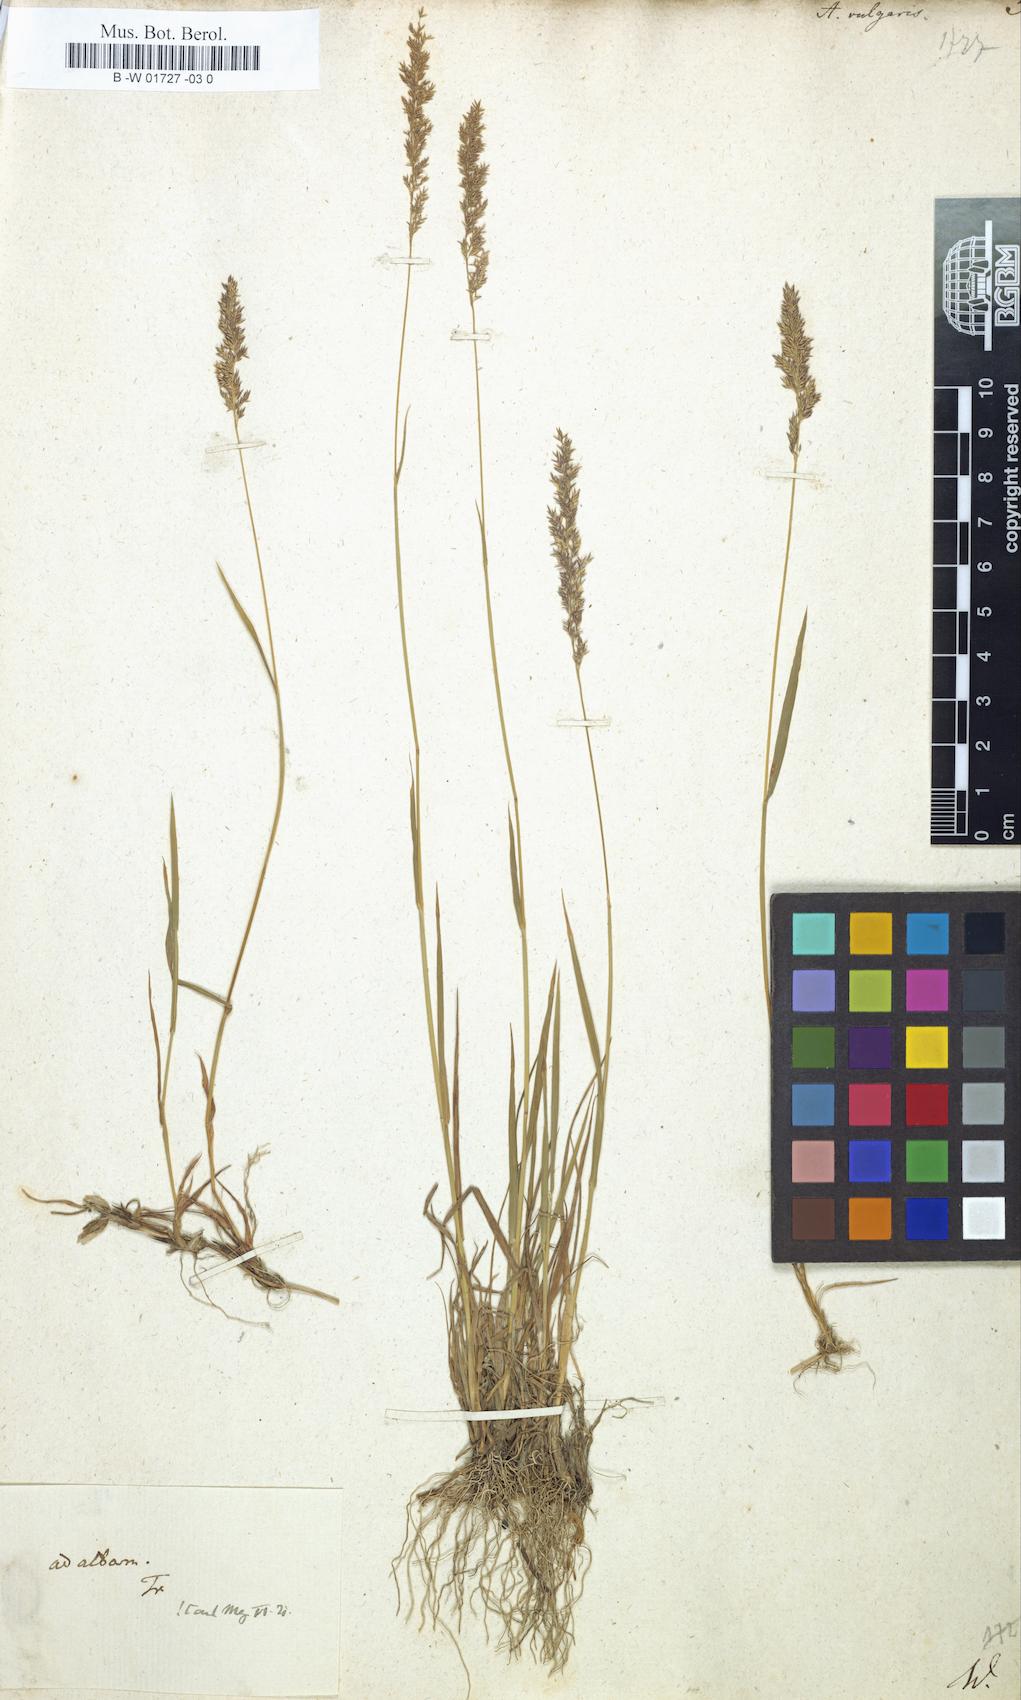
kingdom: Plantae
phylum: Tracheophyta
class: Liliopsida
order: Poales
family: Poaceae
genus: Agrostis
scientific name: Agrostis capillaris
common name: Colonial bentgrass
